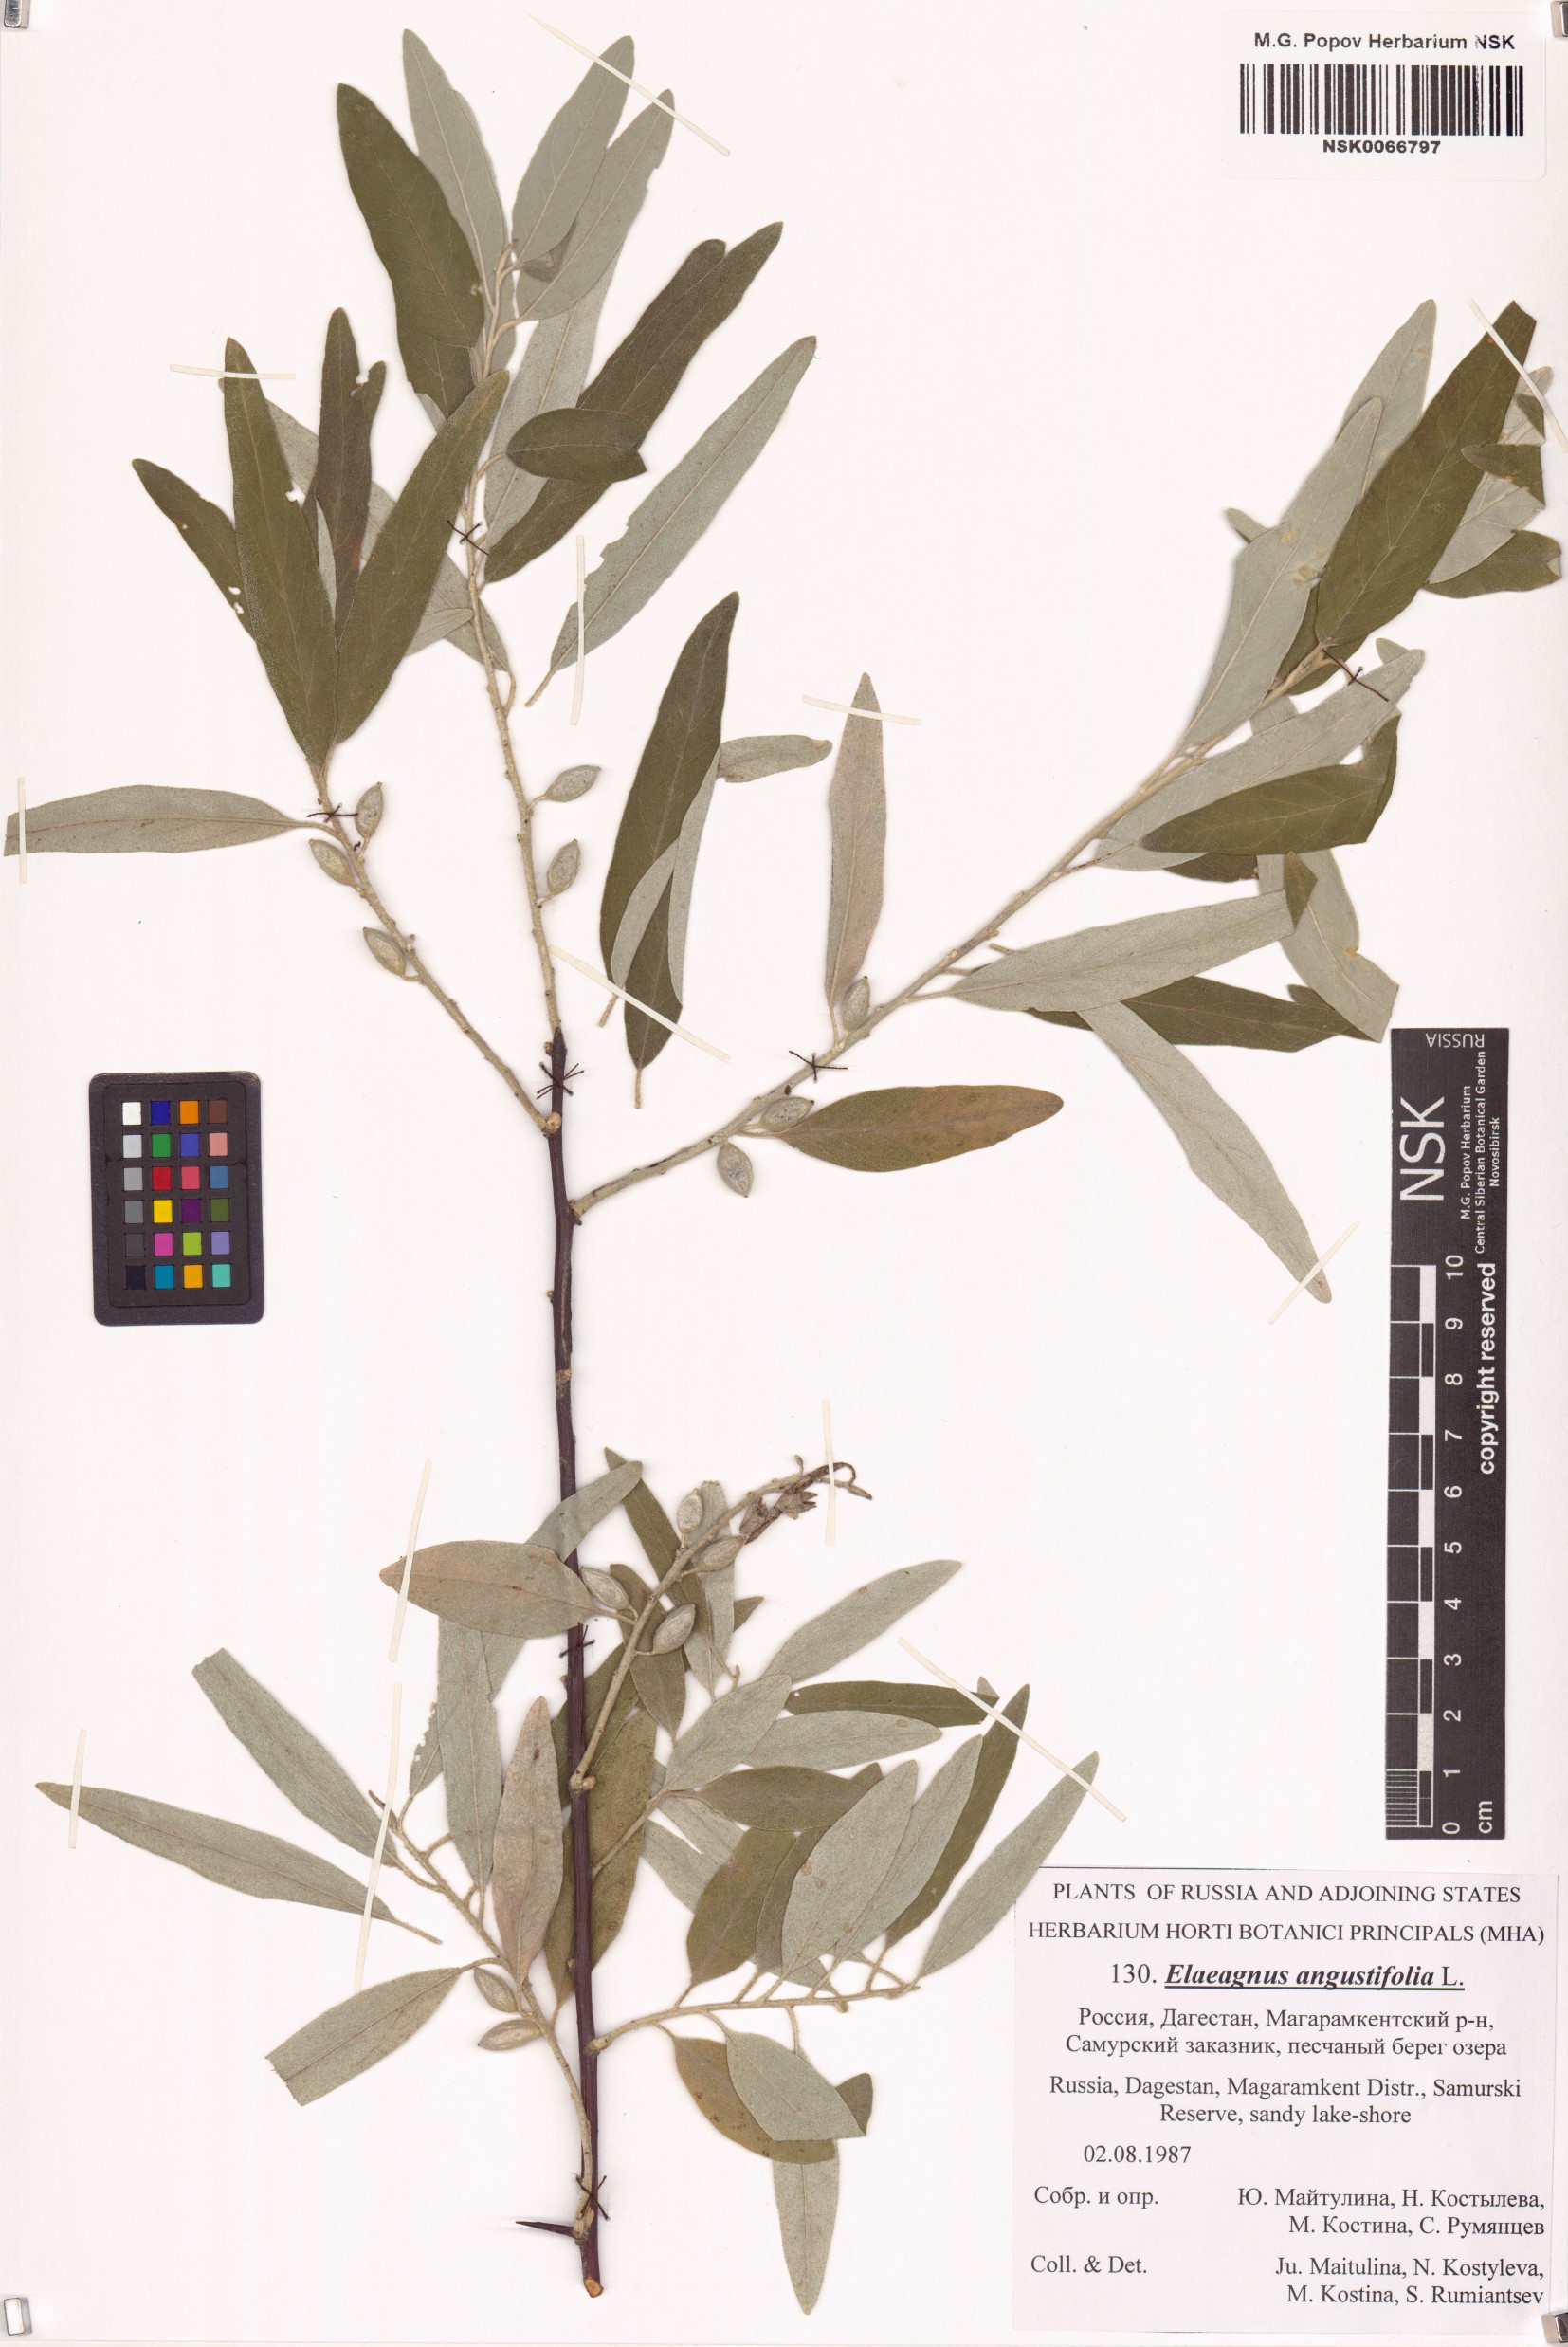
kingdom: Plantae
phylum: Tracheophyta
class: Magnoliopsida
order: Rosales
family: Elaeagnaceae
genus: Elaeagnus
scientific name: Elaeagnus angustifolia
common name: Russian olive
